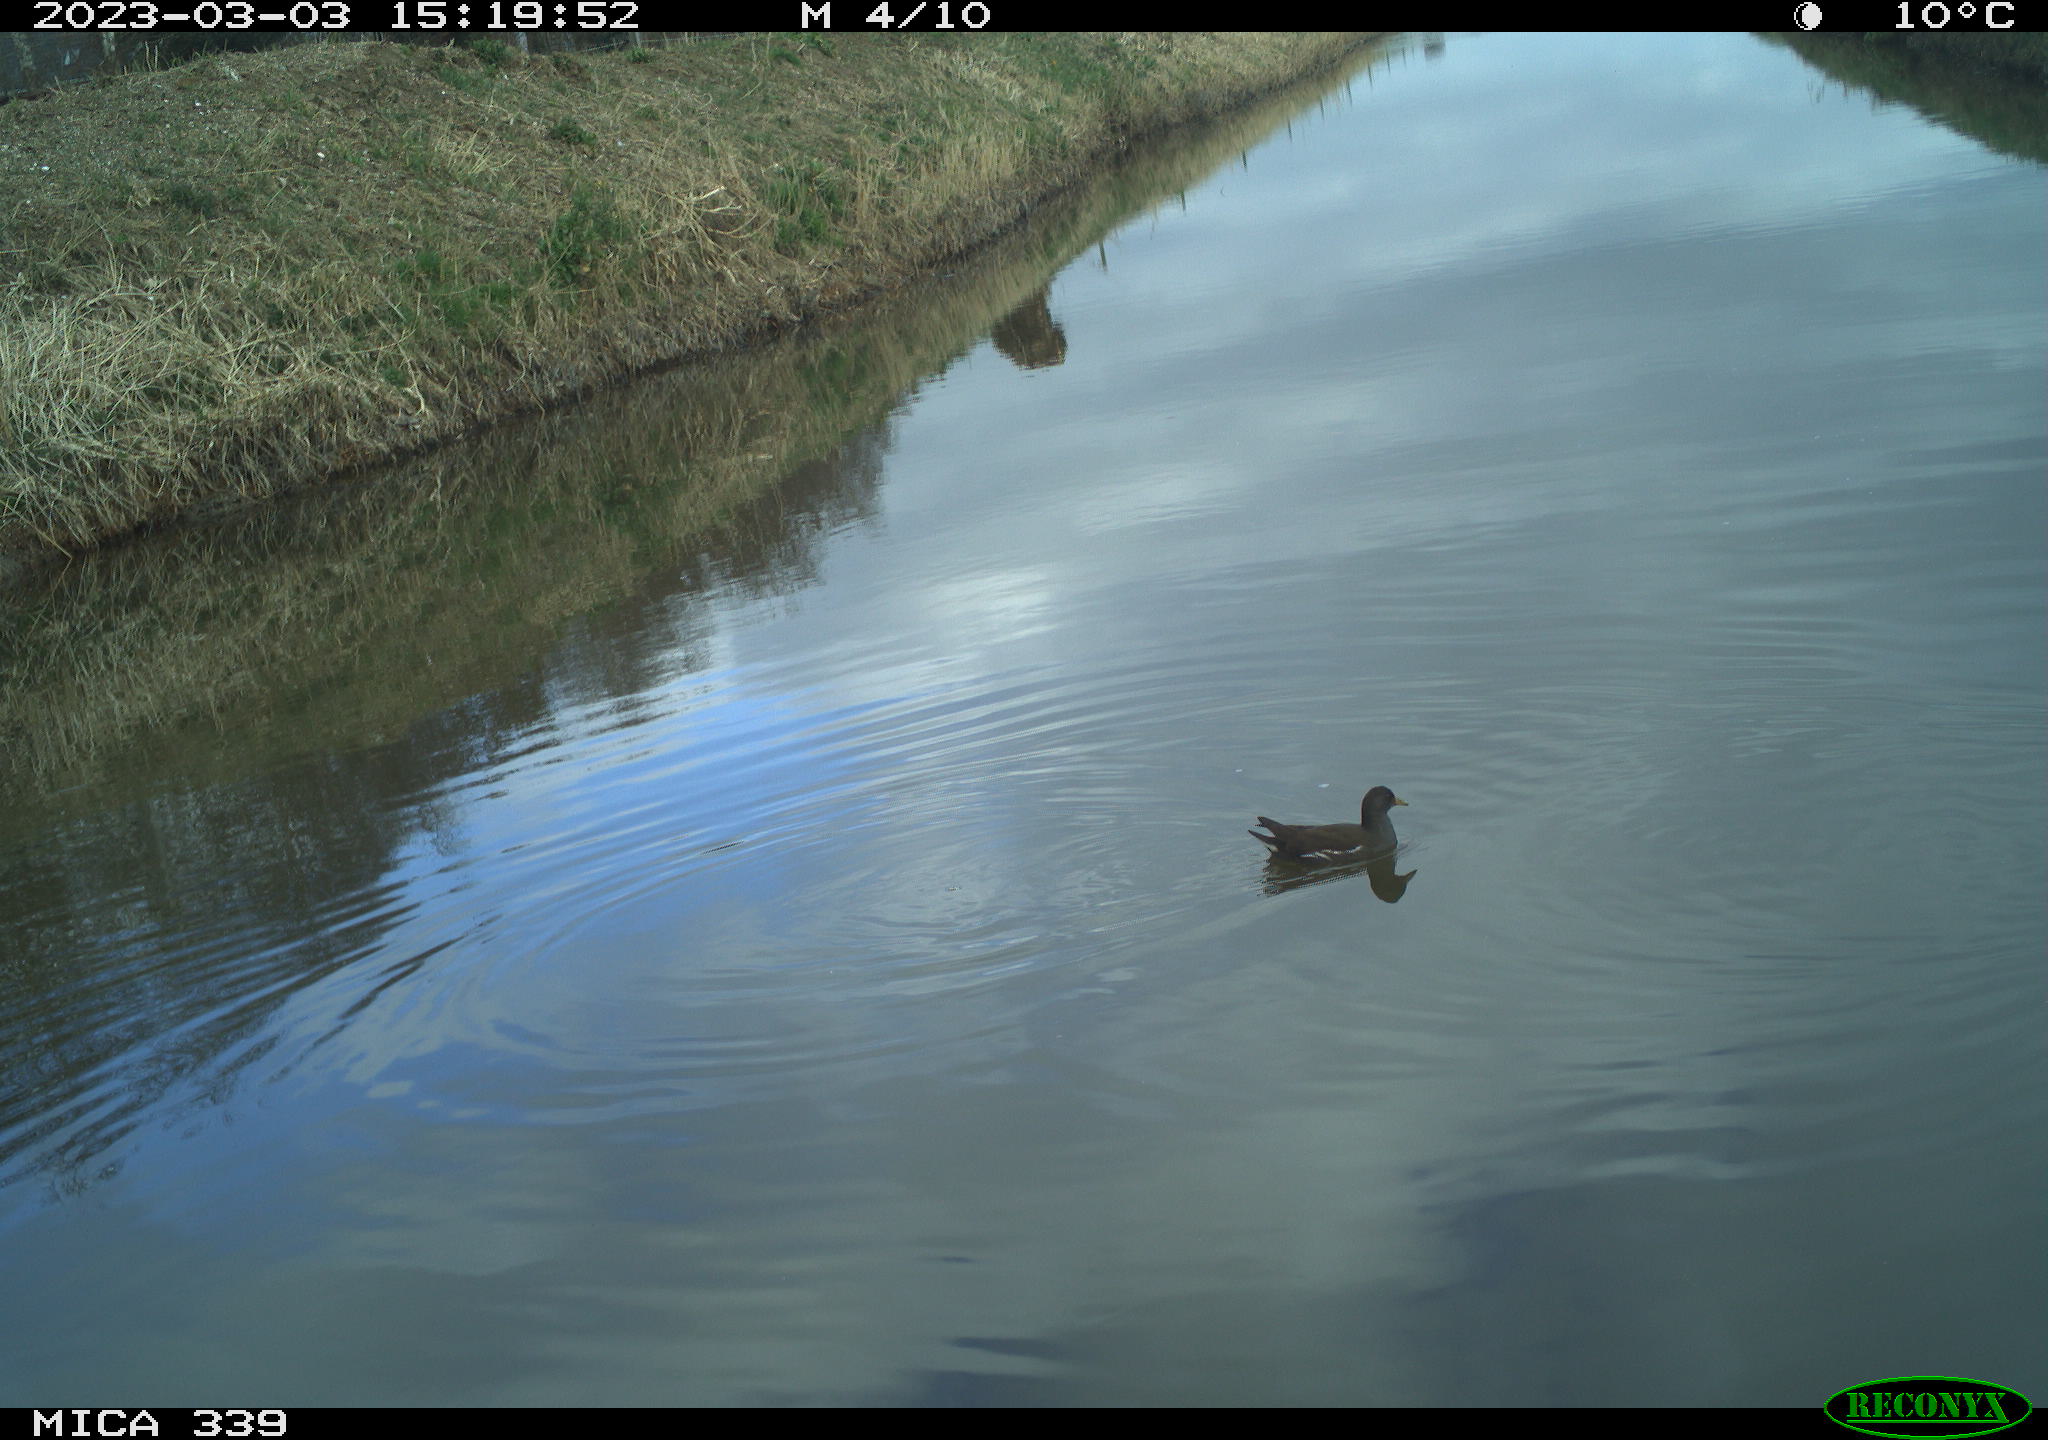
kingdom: Animalia
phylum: Chordata
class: Aves
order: Gruiformes
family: Rallidae
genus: Gallinula
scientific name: Gallinula chloropus
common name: Common moorhen
